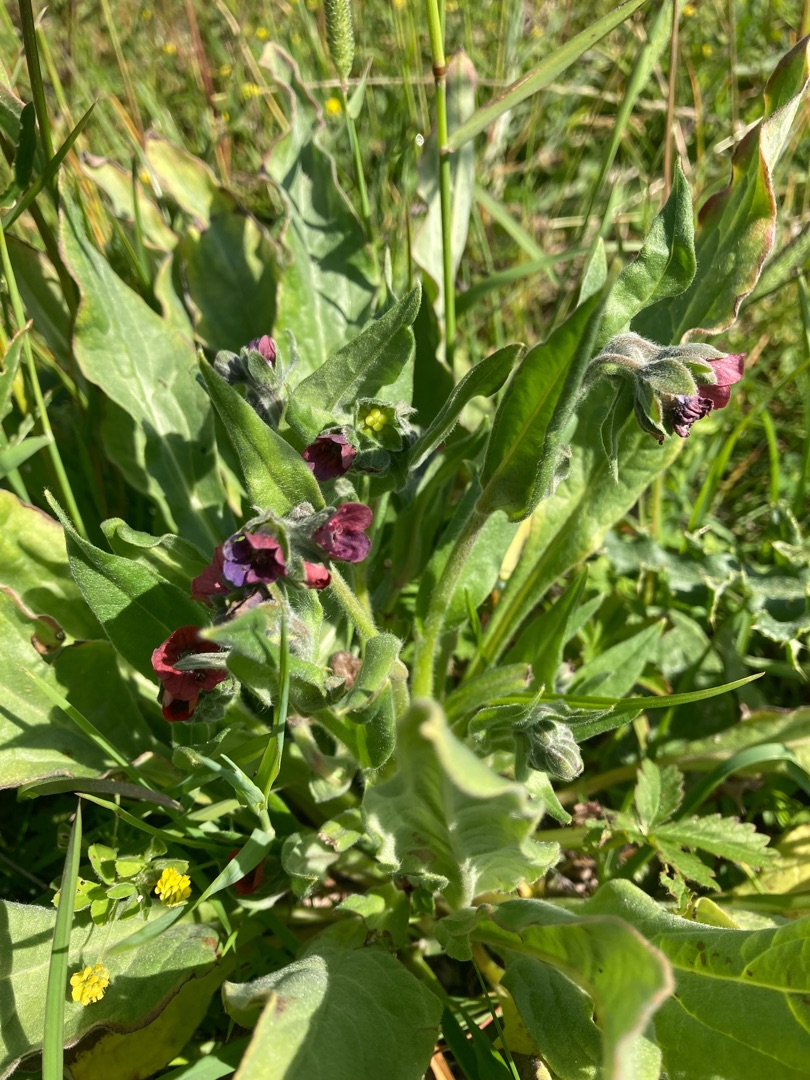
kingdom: Plantae
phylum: Tracheophyta
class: Magnoliopsida
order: Boraginales
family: Boraginaceae
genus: Cynoglossum
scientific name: Cynoglossum officinale
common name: Hundetunge
